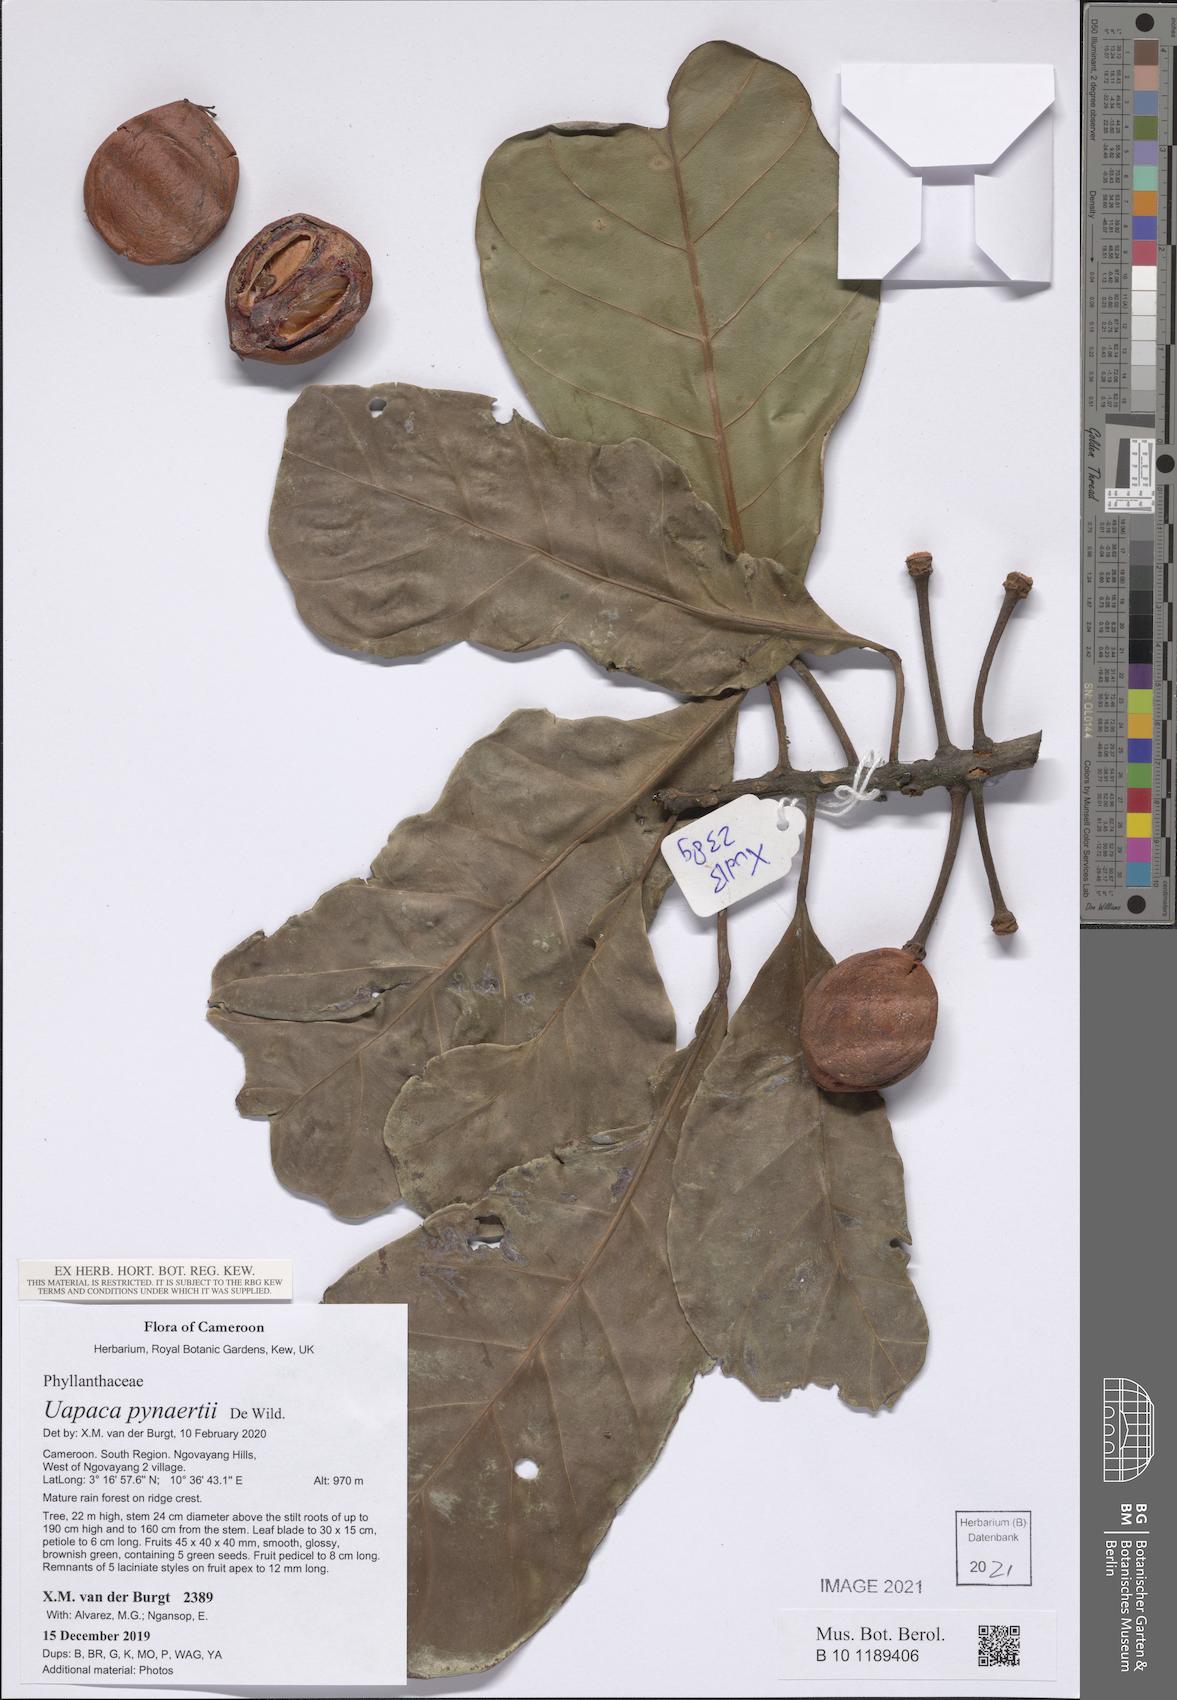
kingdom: Plantae
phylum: Tracheophyta
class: Magnoliopsida
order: Malpighiales
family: Phyllanthaceae
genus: Uapaca
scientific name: Uapaca pynaertii
